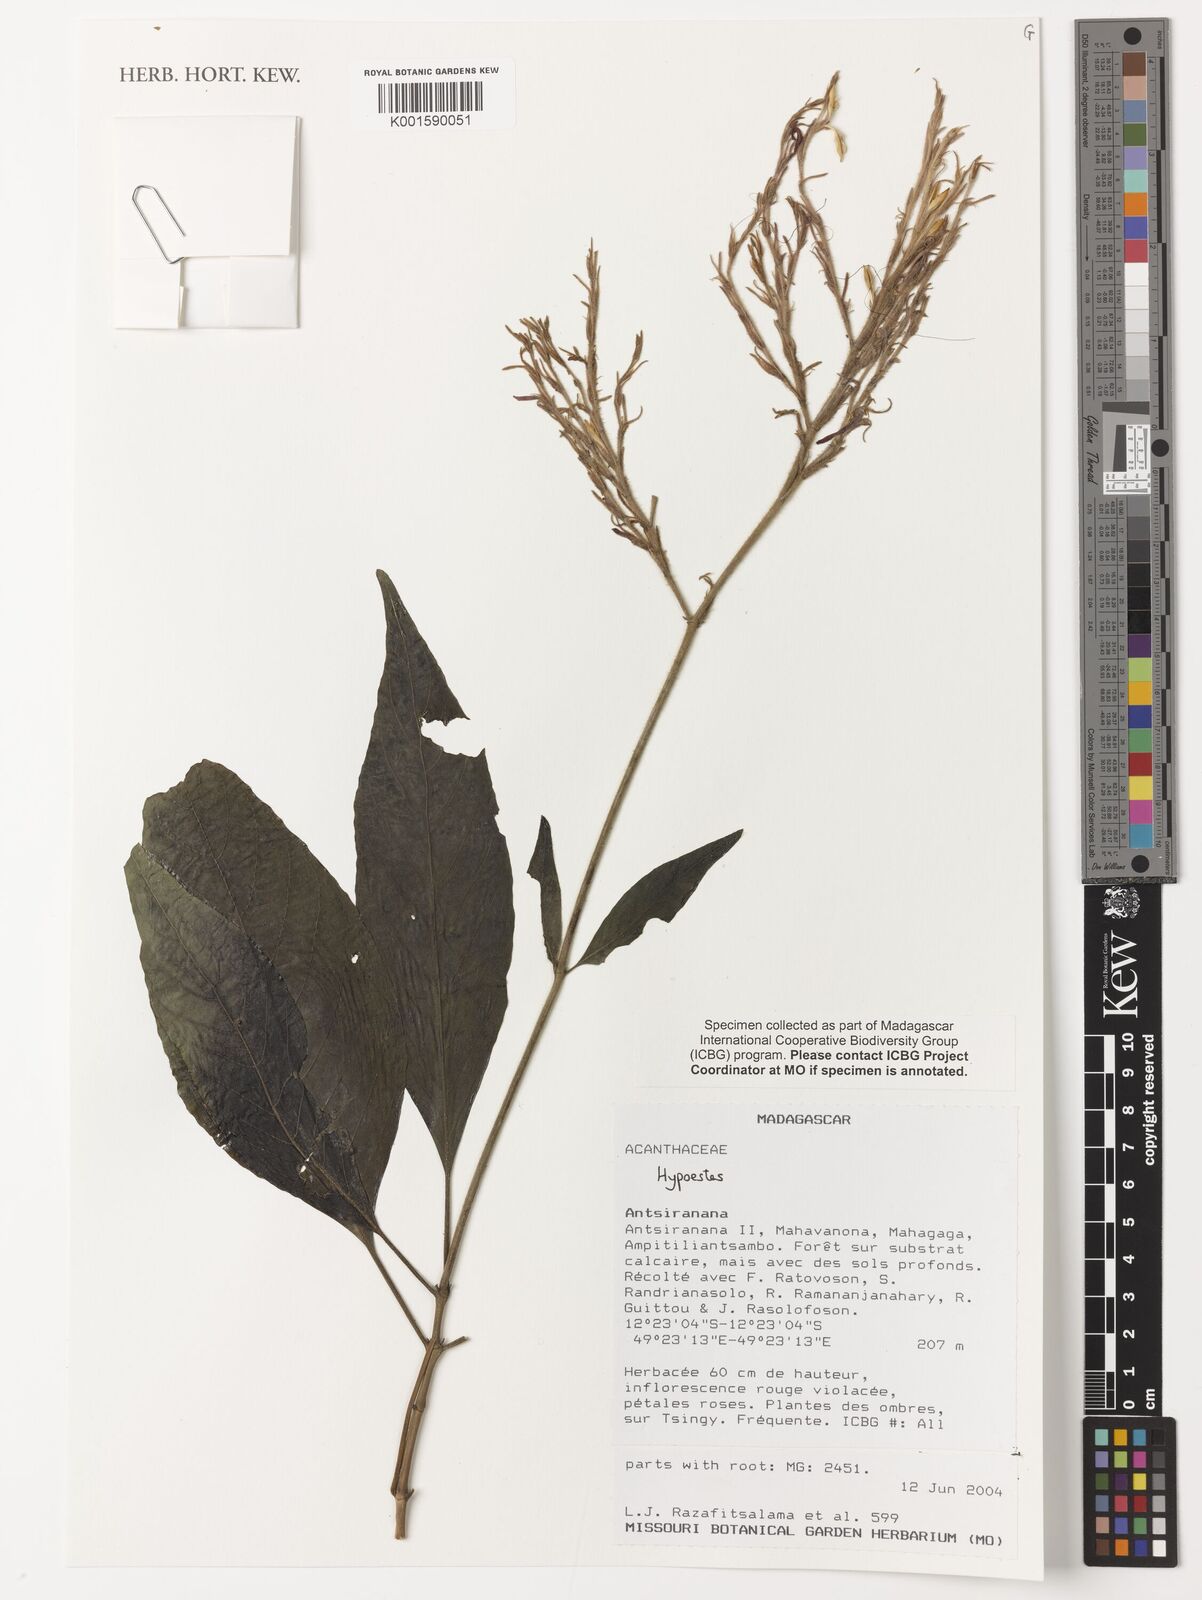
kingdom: Plantae
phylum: Tracheophyta
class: Magnoliopsida
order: Lamiales
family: Acanthaceae
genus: Hypoestes
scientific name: Hypoestes
